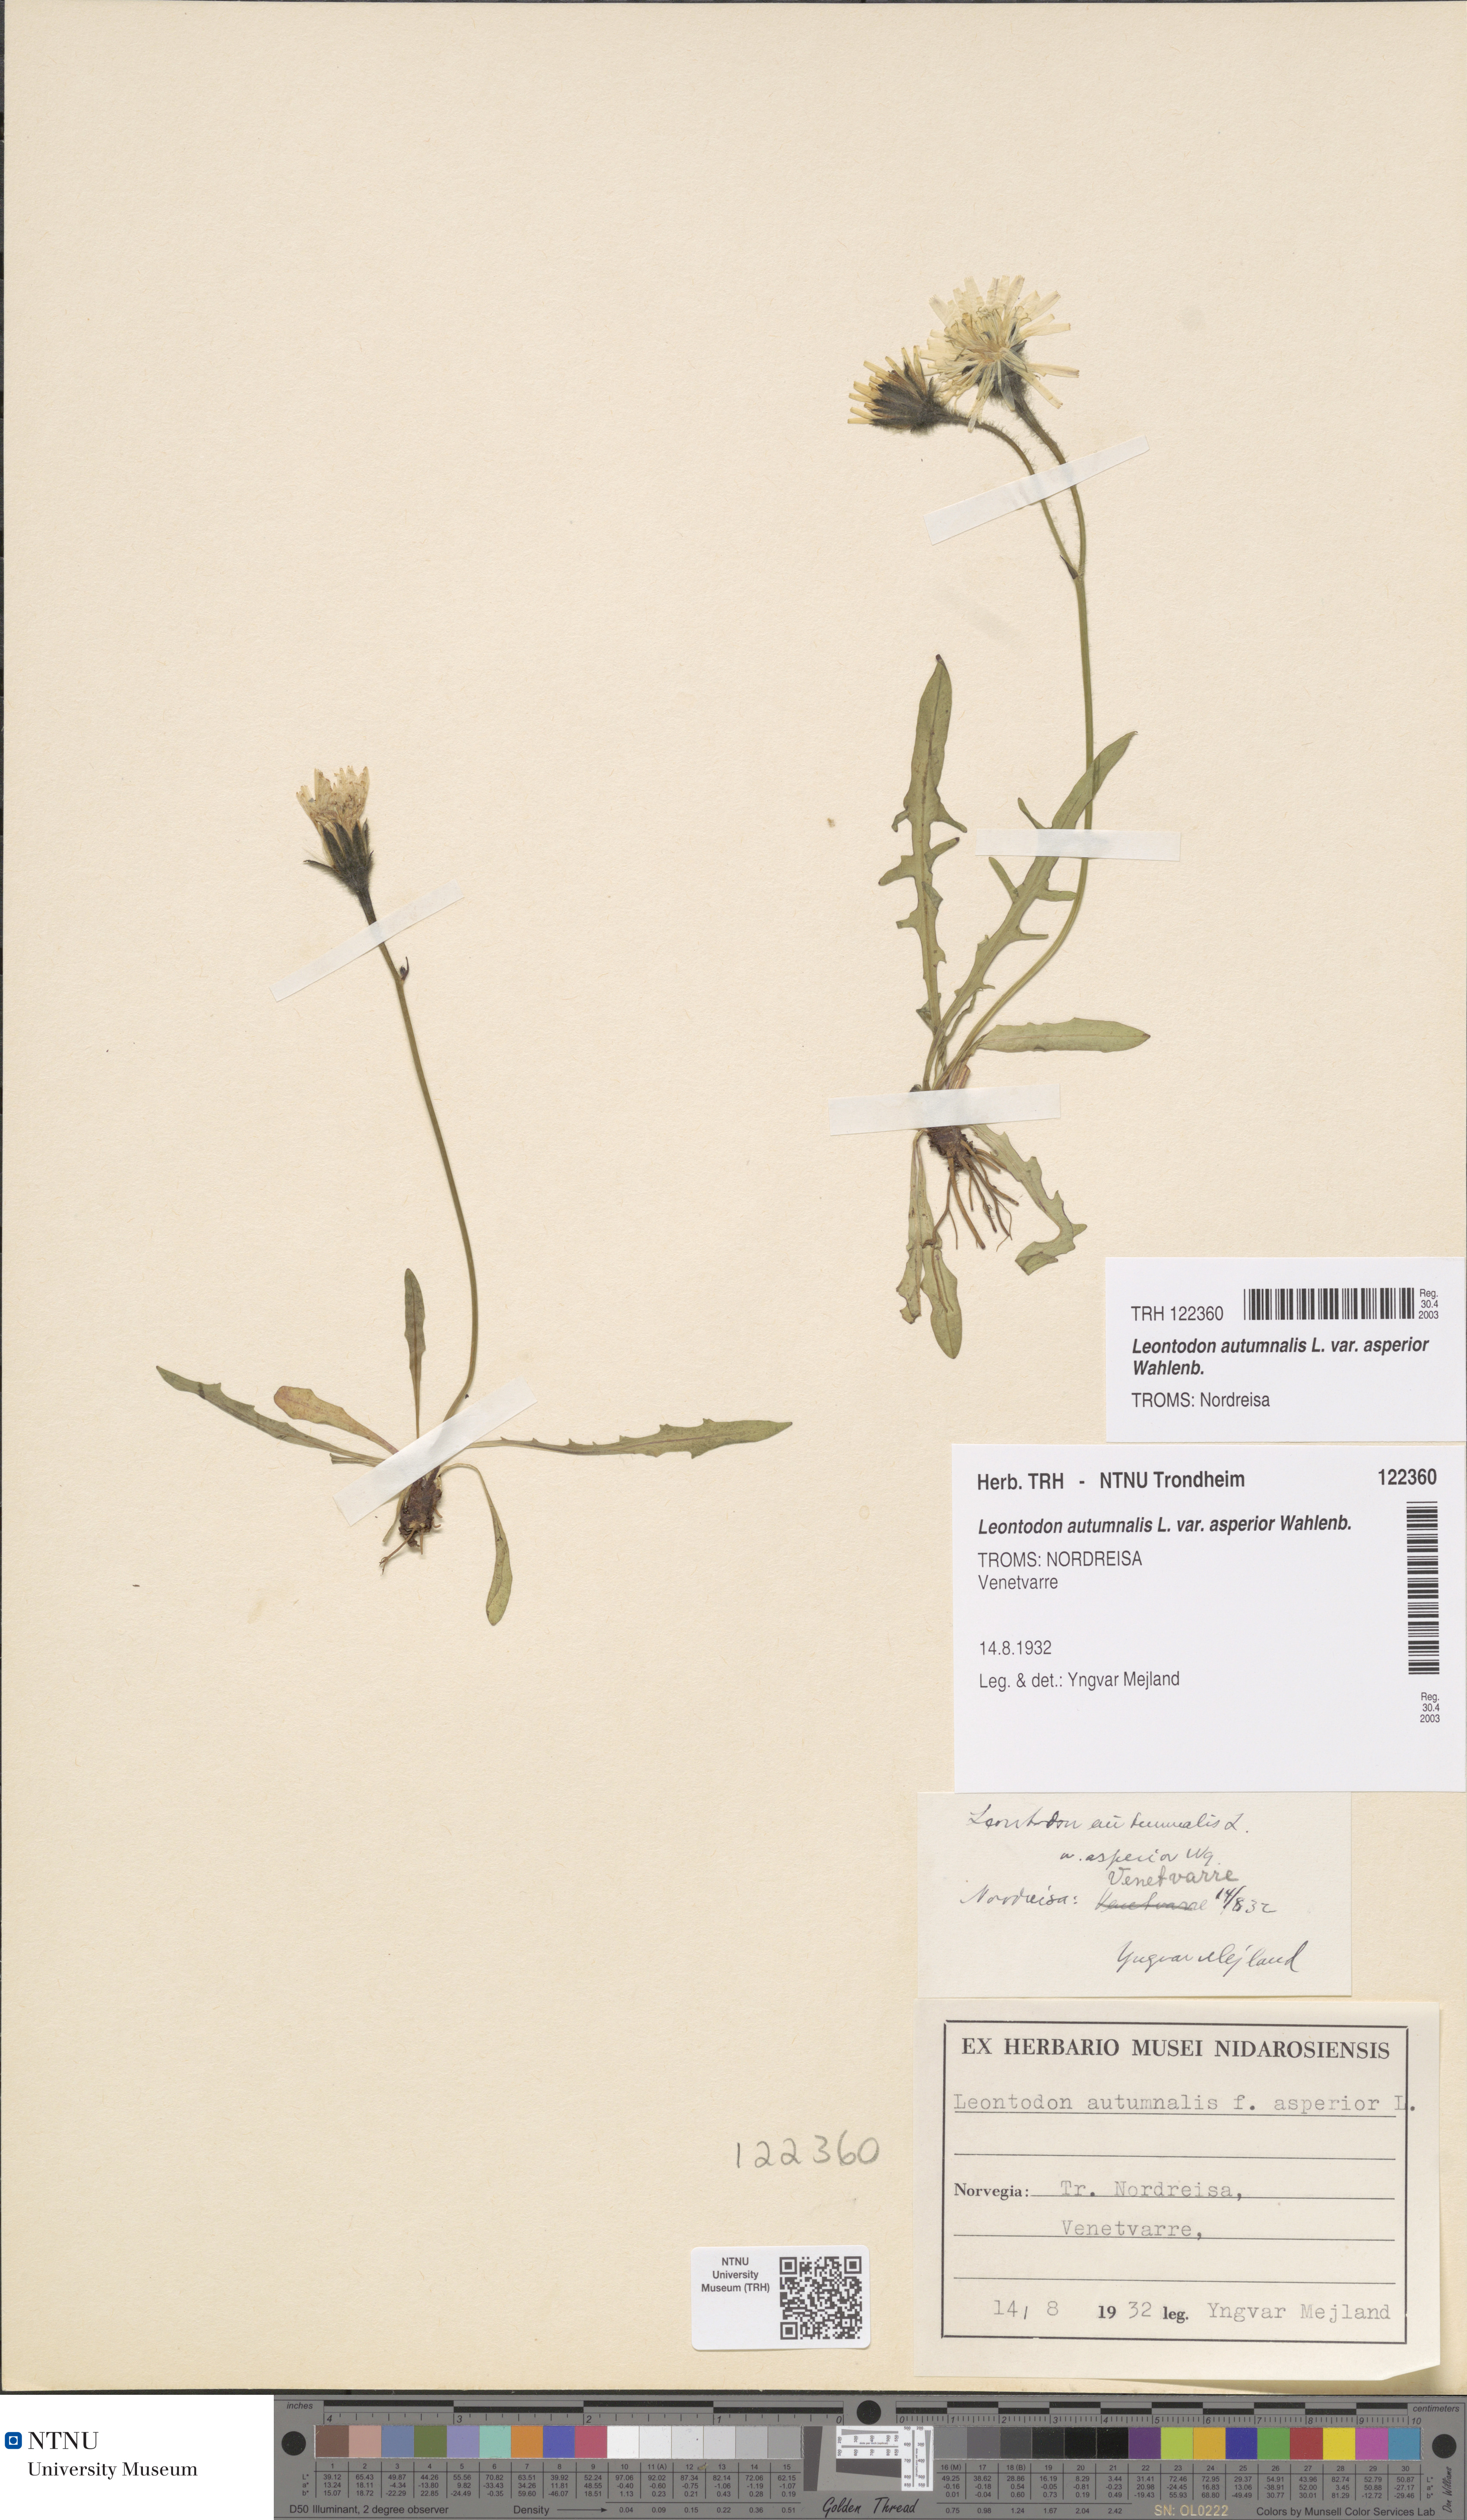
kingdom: Plantae
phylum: Tracheophyta
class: Magnoliopsida
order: Asterales
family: Asteraceae
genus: Scorzoneroides
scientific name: Scorzoneroides autumnalis
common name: Autumn hawkbit
